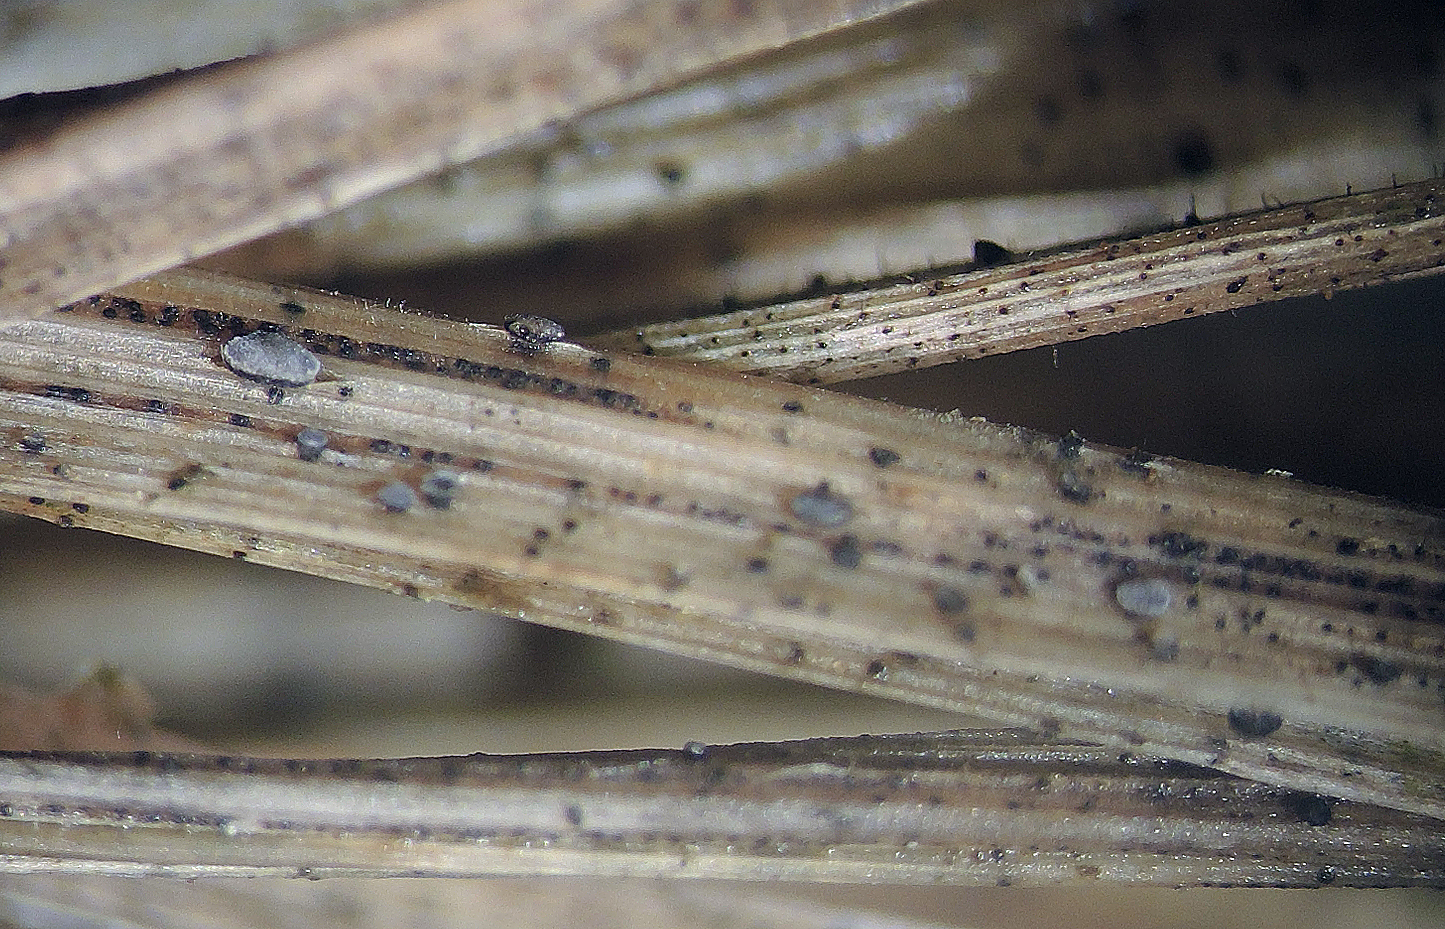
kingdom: Fungi
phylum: Ascomycota
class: Leotiomycetes
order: Helotiales
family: Dermateaceae
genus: Cejpia
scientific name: Cejpia hystrix
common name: blåtop-pelsskive
